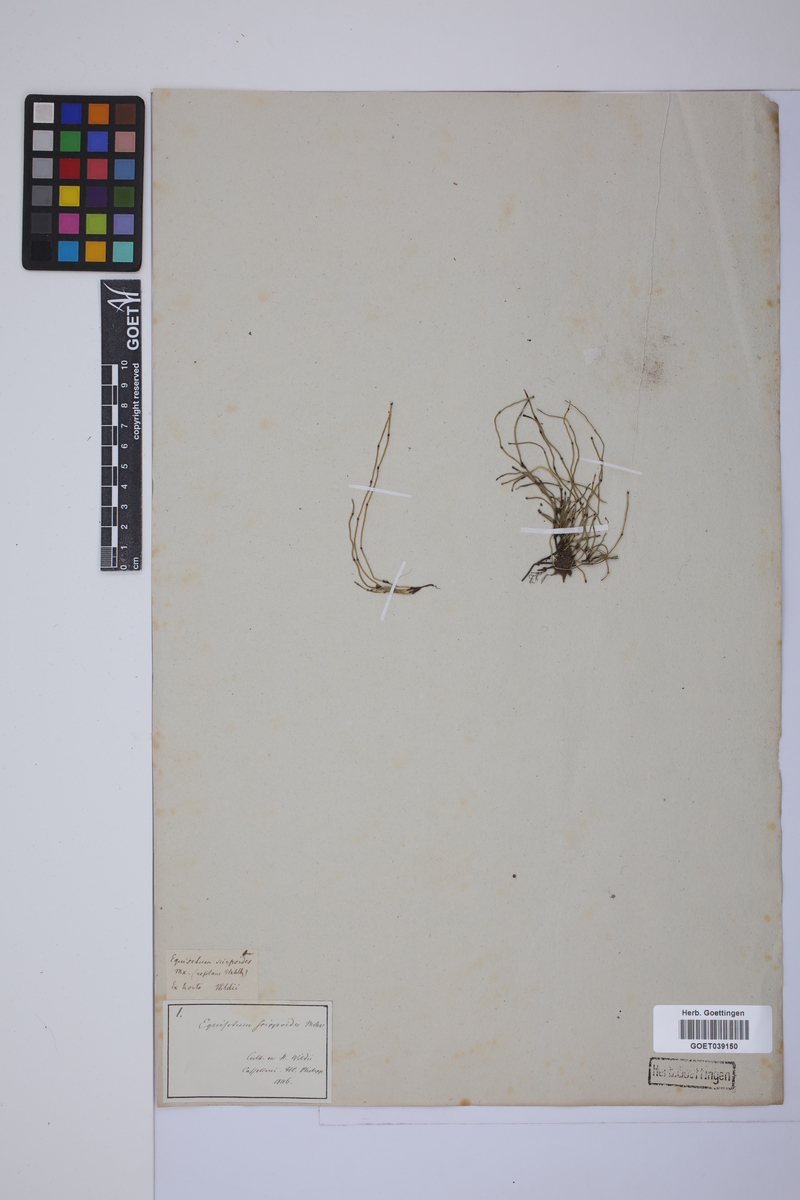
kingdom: Plantae
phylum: Tracheophyta
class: Polypodiopsida
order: Equisetales
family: Equisetaceae
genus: Equisetum
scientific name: Equisetum scirpoides
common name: Delicate horsetail
